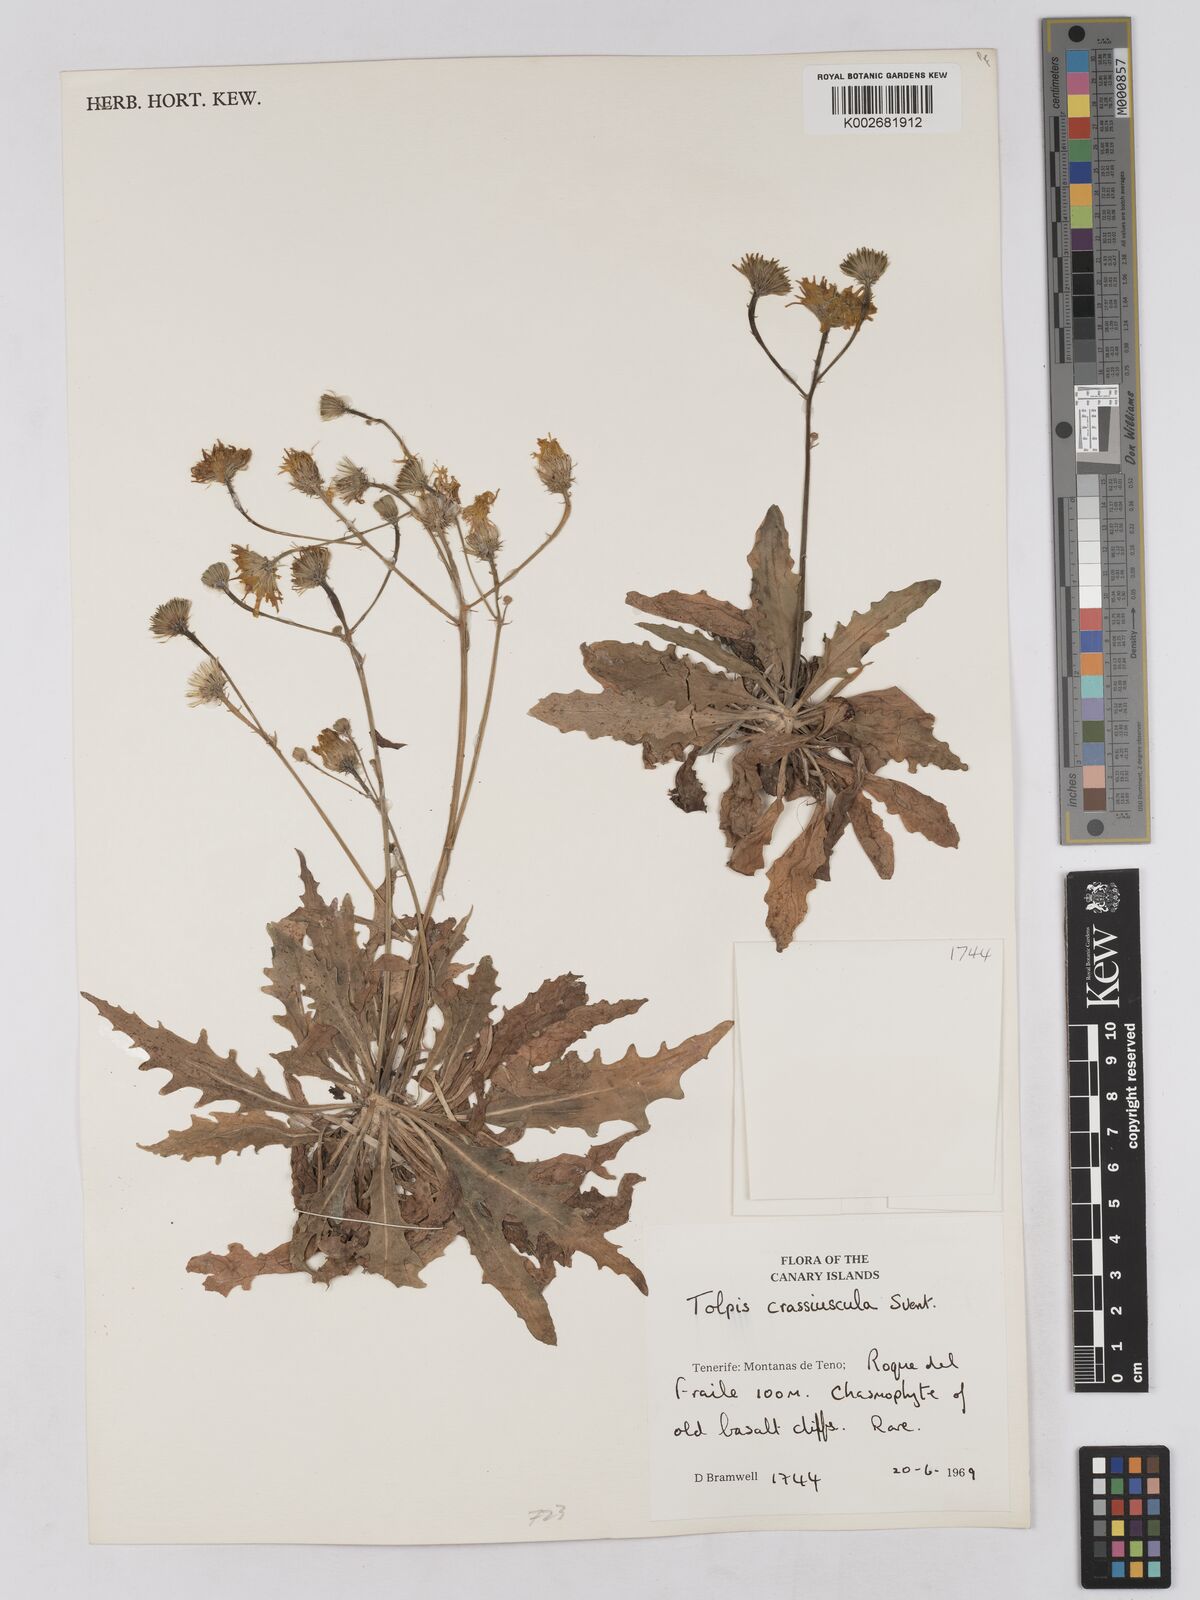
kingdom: Plantae
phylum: Tracheophyta
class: Magnoliopsida
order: Asterales
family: Asteraceae
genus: Tolpis
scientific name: Tolpis crassiuscula
